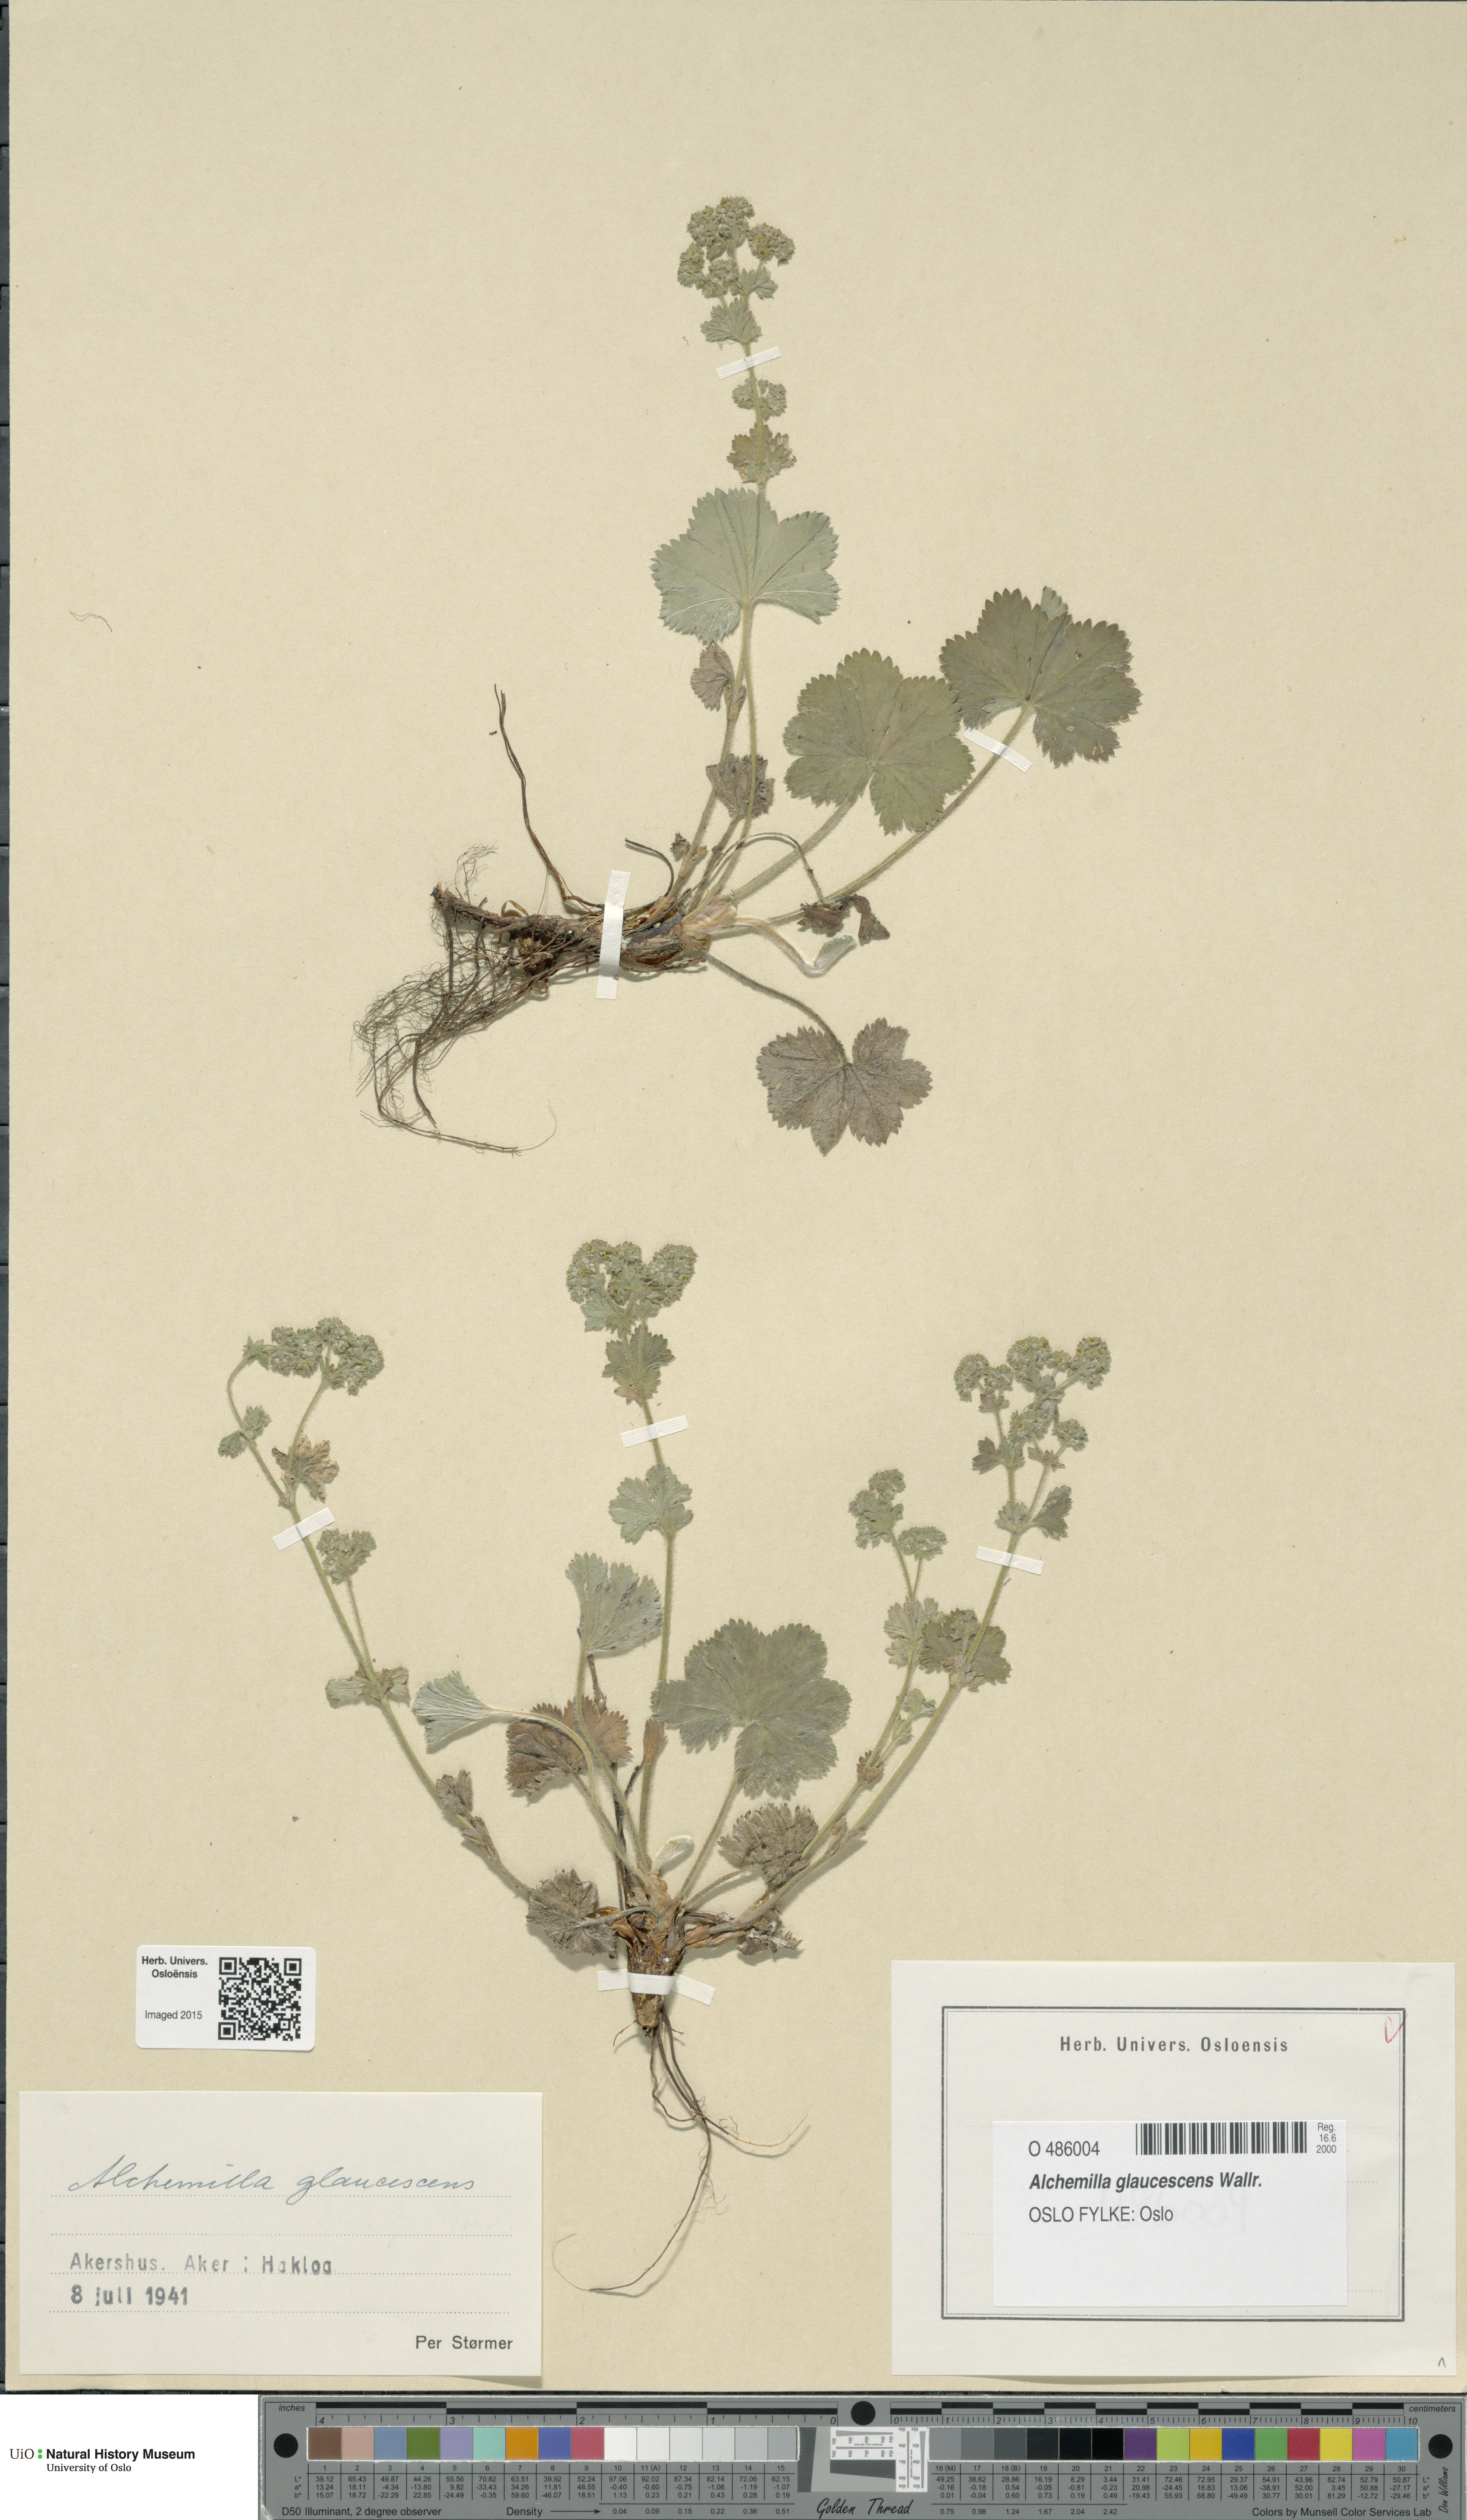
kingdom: Plantae
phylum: Tracheophyta
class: Magnoliopsida
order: Rosales
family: Rosaceae
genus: Alchemilla
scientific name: Alchemilla glaucescens
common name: Silky lady's mantle
